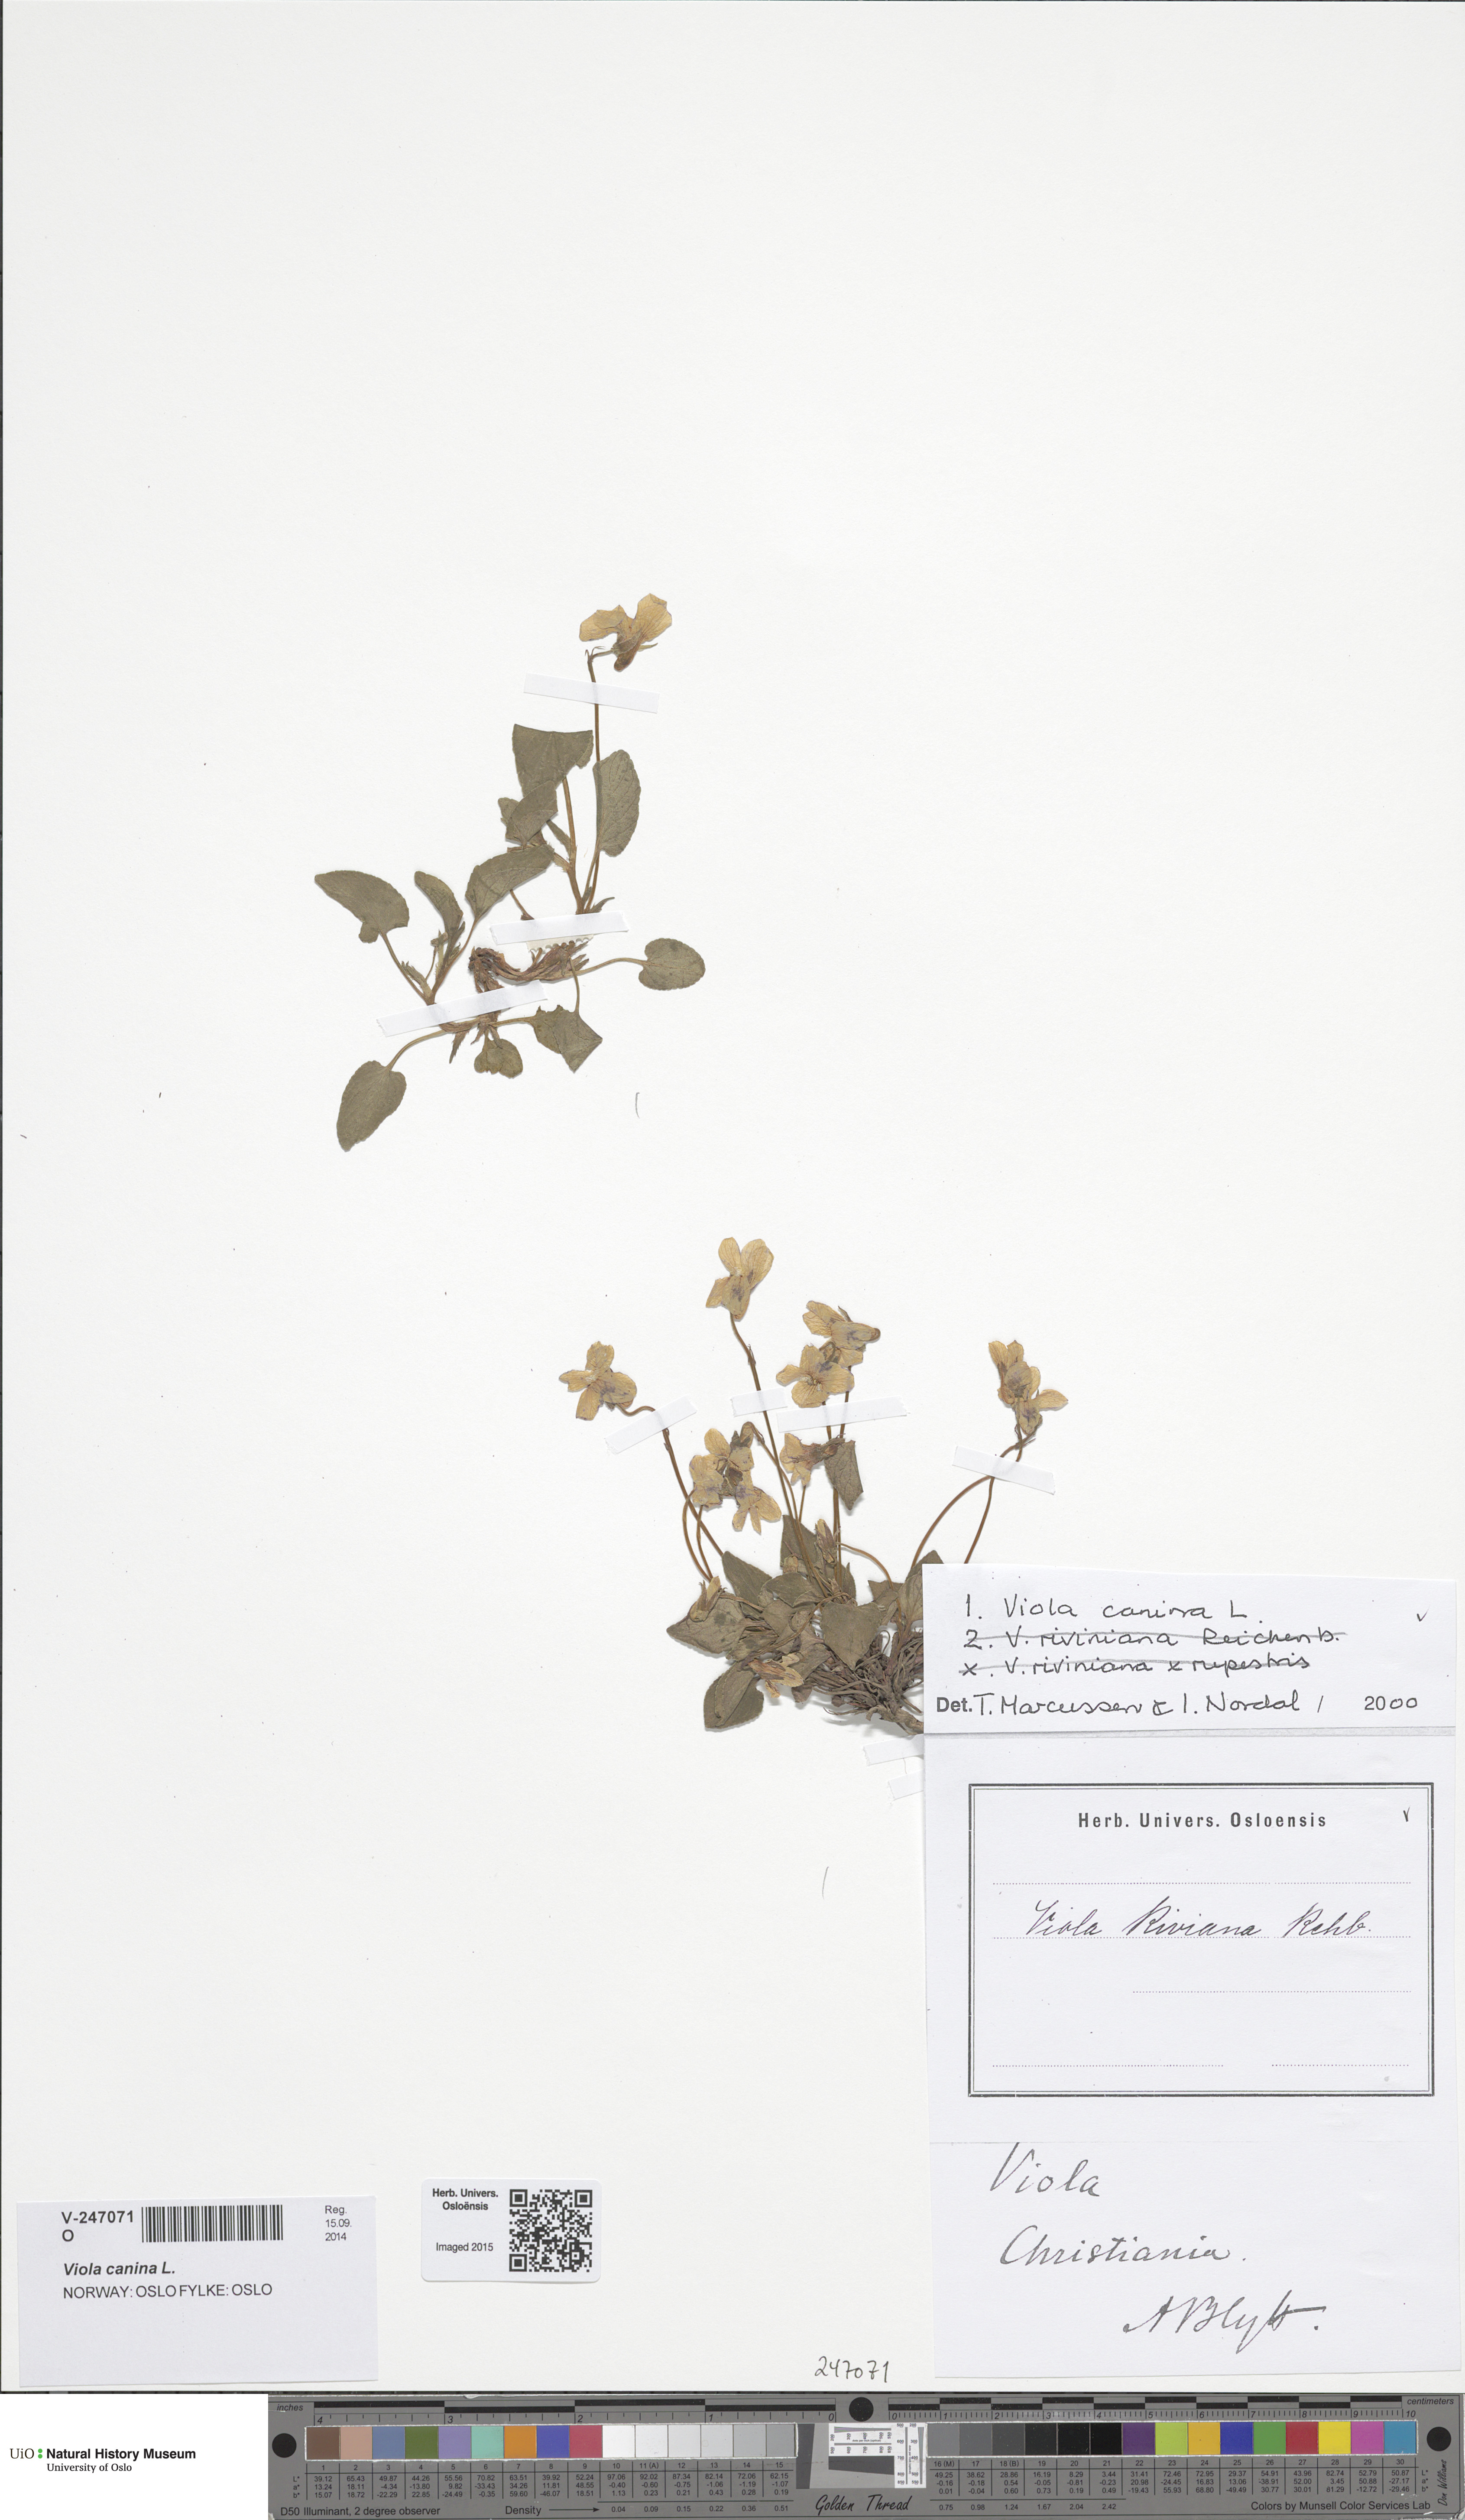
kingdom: Plantae
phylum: Tracheophyta
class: Magnoliopsida
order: Malpighiales
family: Violaceae
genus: Viola
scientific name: Viola canina
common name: Heath dog-violet
